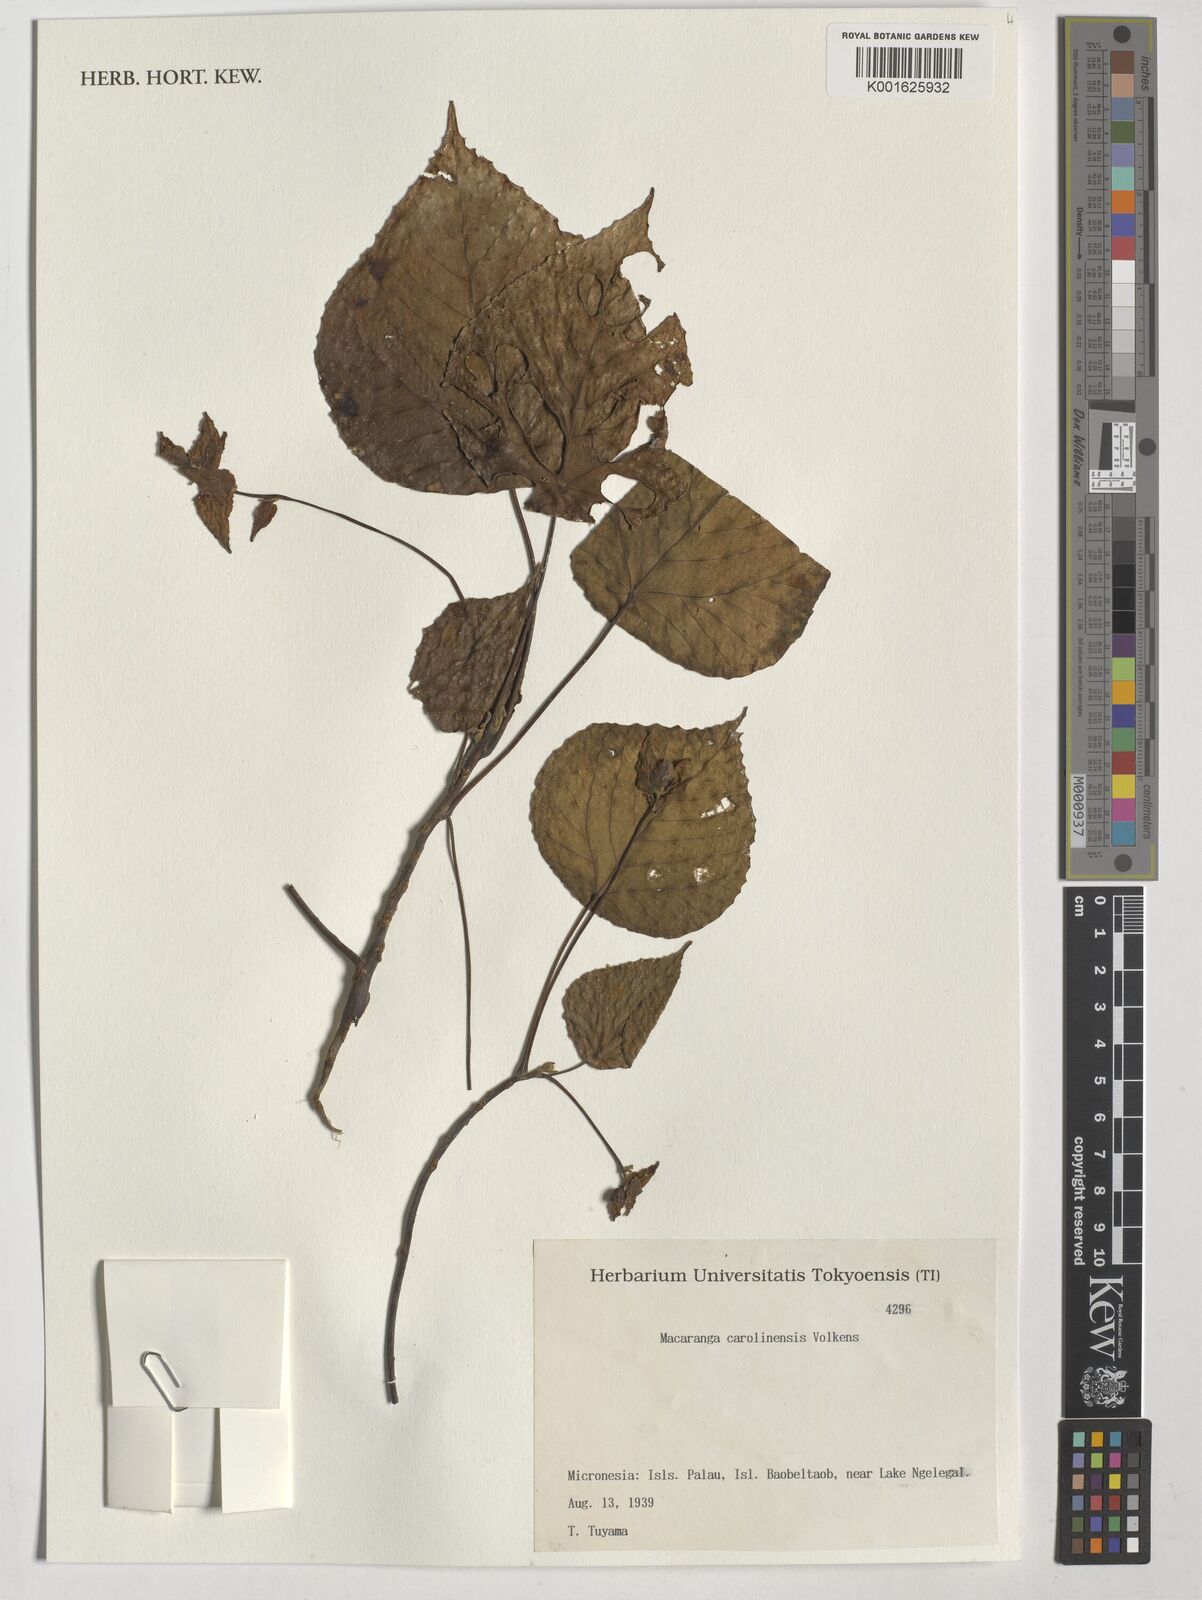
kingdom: Plantae
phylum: Tracheophyta
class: Magnoliopsida
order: Malpighiales
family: Euphorbiaceae
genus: Macaranga
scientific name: Macaranga carolinensis
